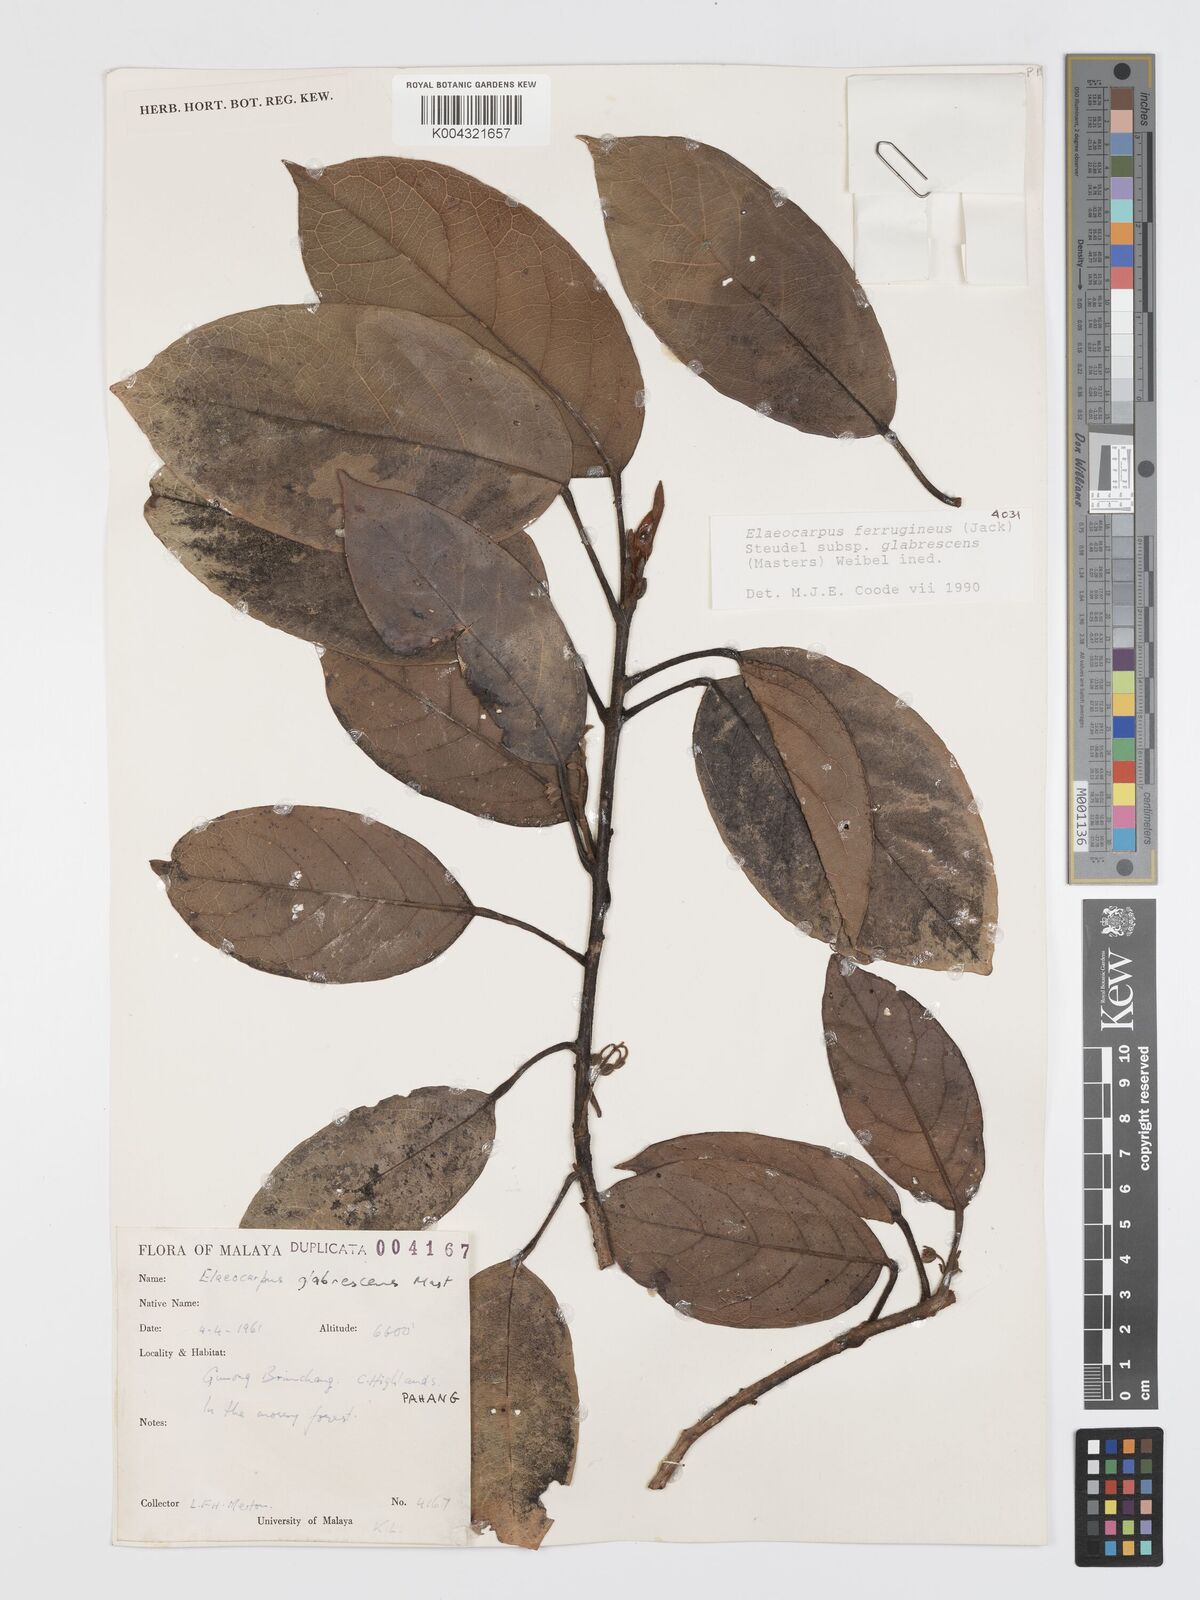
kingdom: Plantae
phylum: Tracheophyta
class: Magnoliopsida
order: Oxalidales
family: Elaeocarpaceae
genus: Elaeocarpus
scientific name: Elaeocarpus ferrugineus
